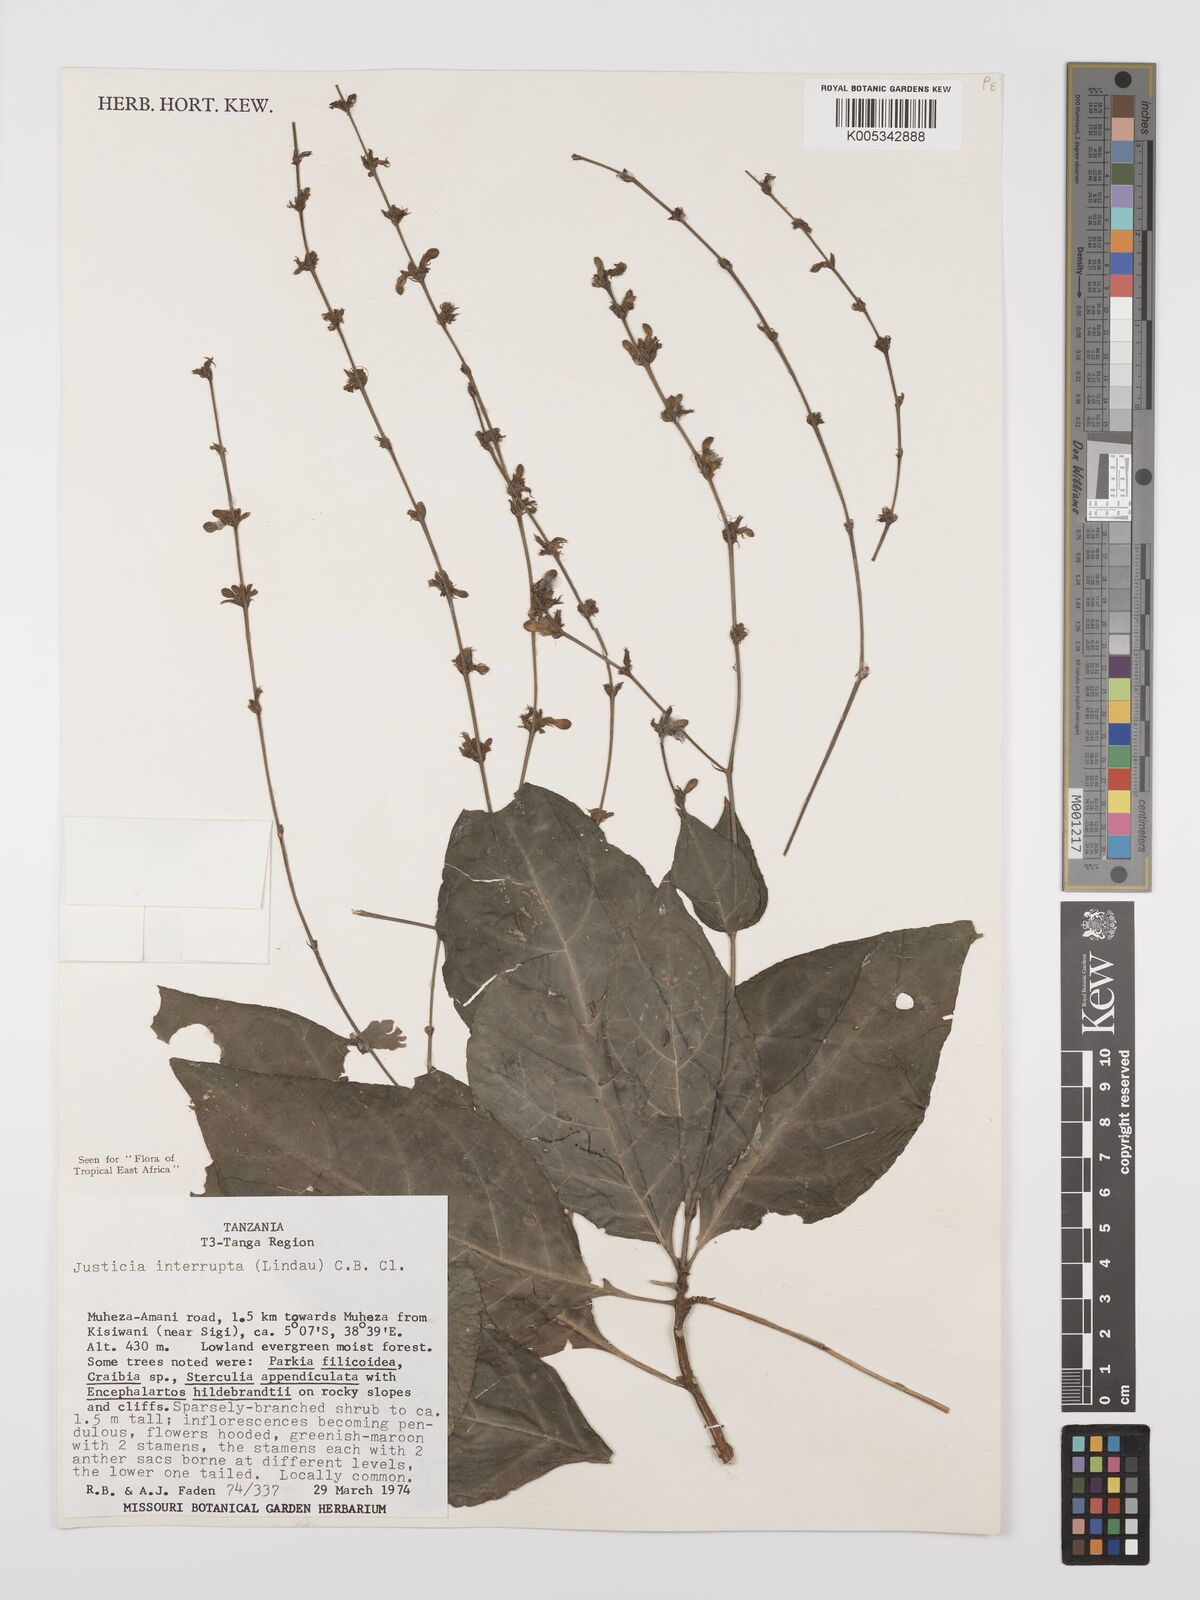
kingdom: Plantae
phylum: Tracheophyta
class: Magnoliopsida
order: Lamiales
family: Acanthaceae
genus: Justicia
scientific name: Justicia plectranthoides
